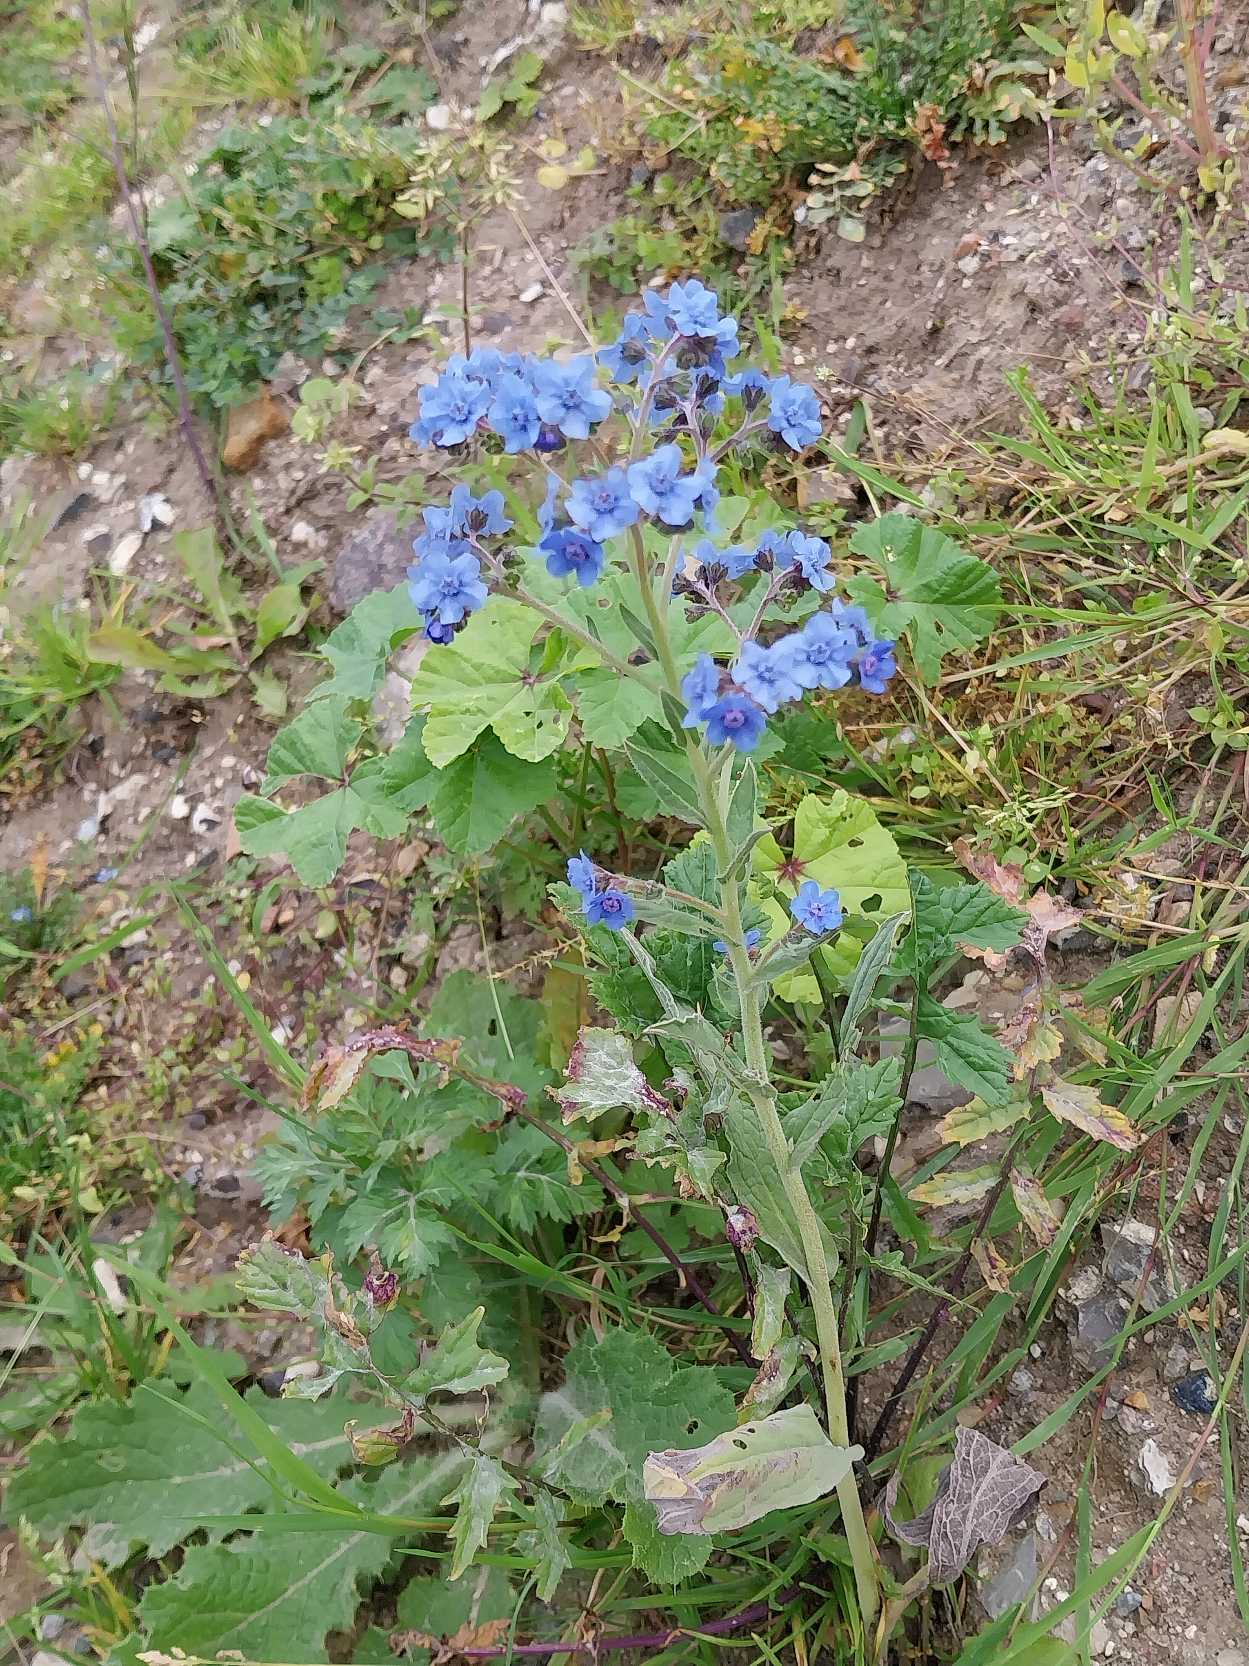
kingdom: Plantae
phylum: Tracheophyta
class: Magnoliopsida
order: Boraginales
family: Boraginaceae
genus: Cynoglossum
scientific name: Cynoglossum amabile
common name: Kinesisk hundetunge
